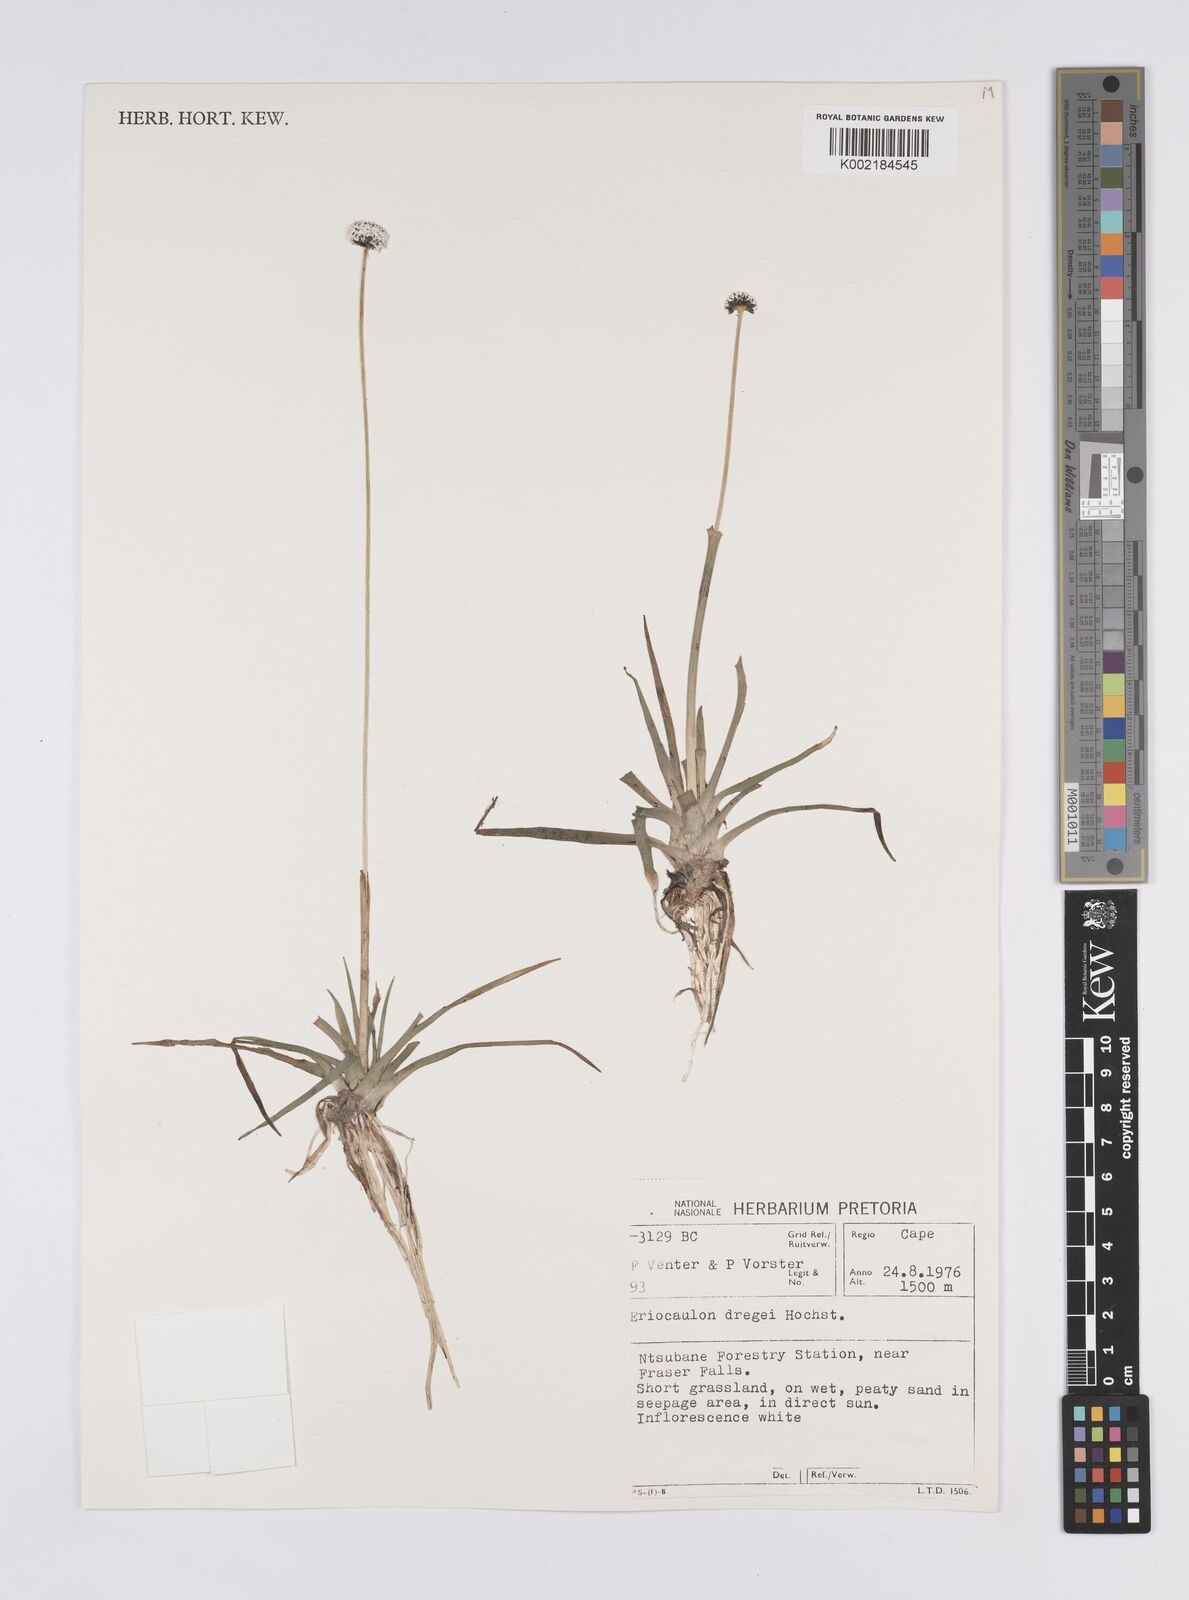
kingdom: Plantae
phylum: Tracheophyta
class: Liliopsida
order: Poales
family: Eriocaulaceae
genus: Eriocaulon
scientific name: Eriocaulon dregei
